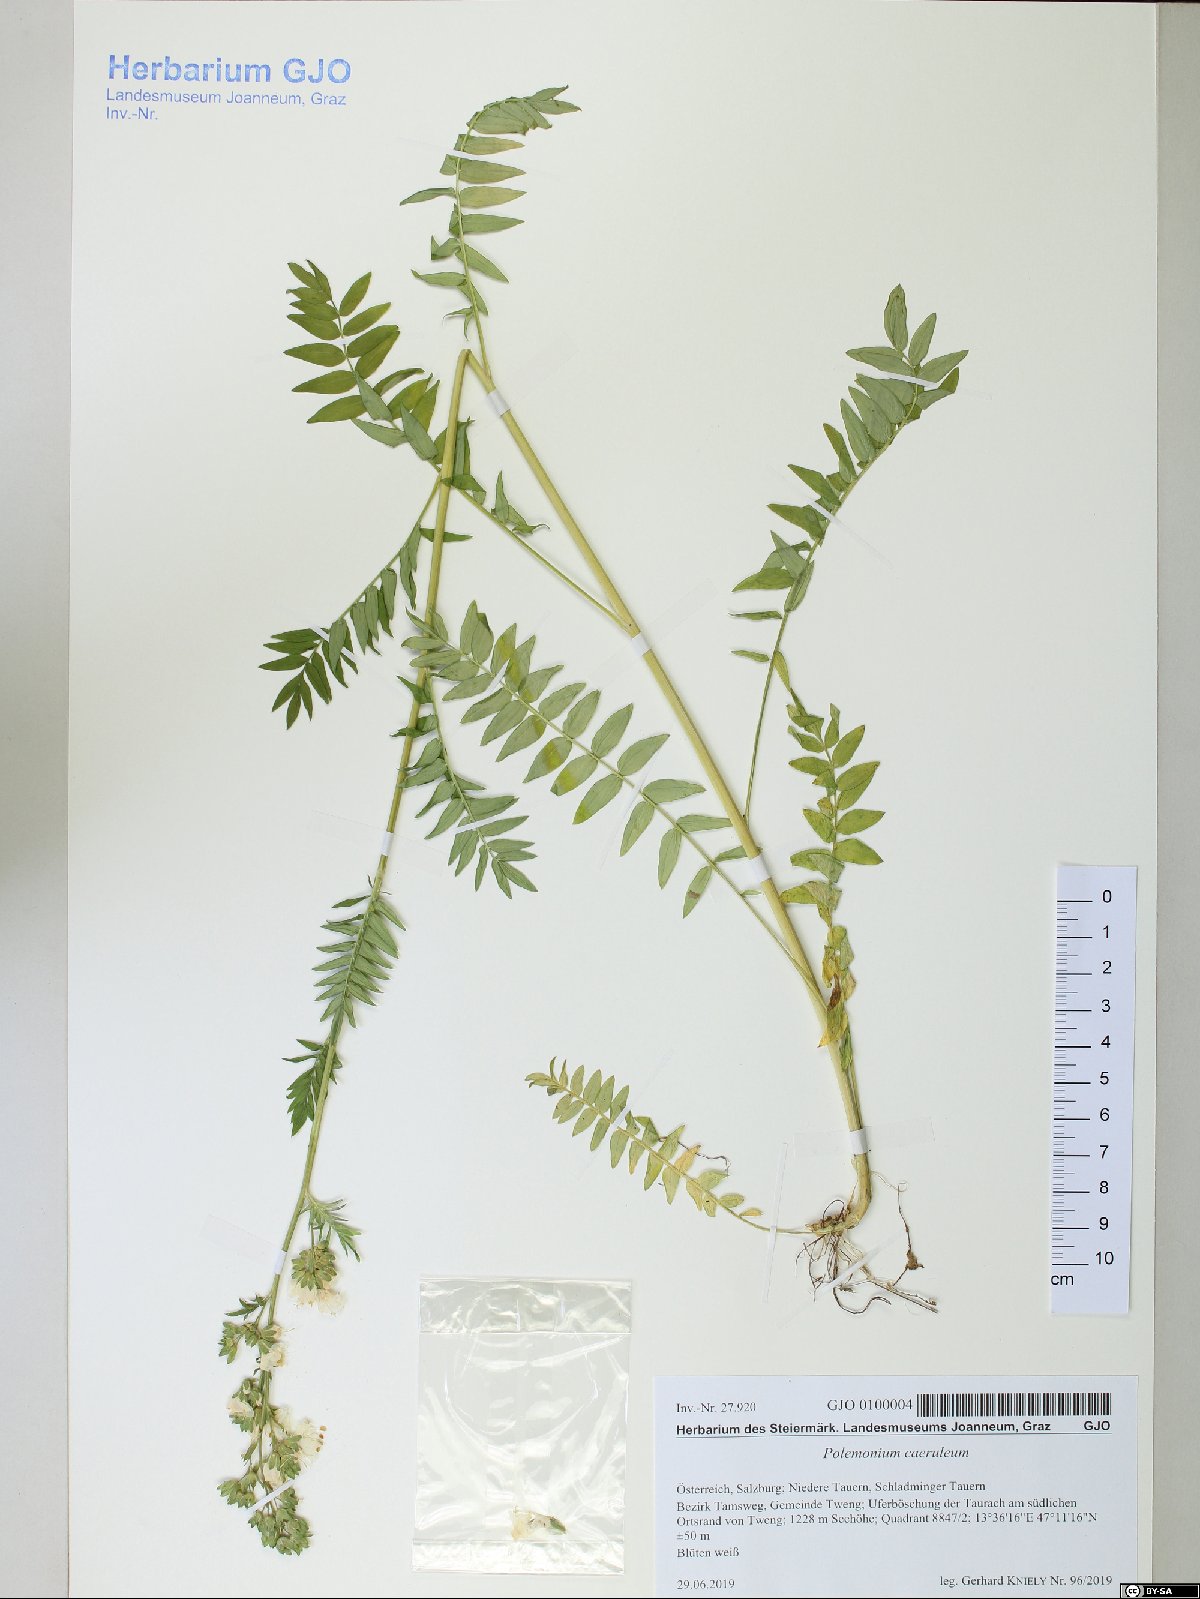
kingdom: Plantae
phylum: Tracheophyta
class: Magnoliopsida
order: Ericales
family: Polemoniaceae
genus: Polemonium
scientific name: Polemonium caeruleum
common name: Jacob's-ladder
